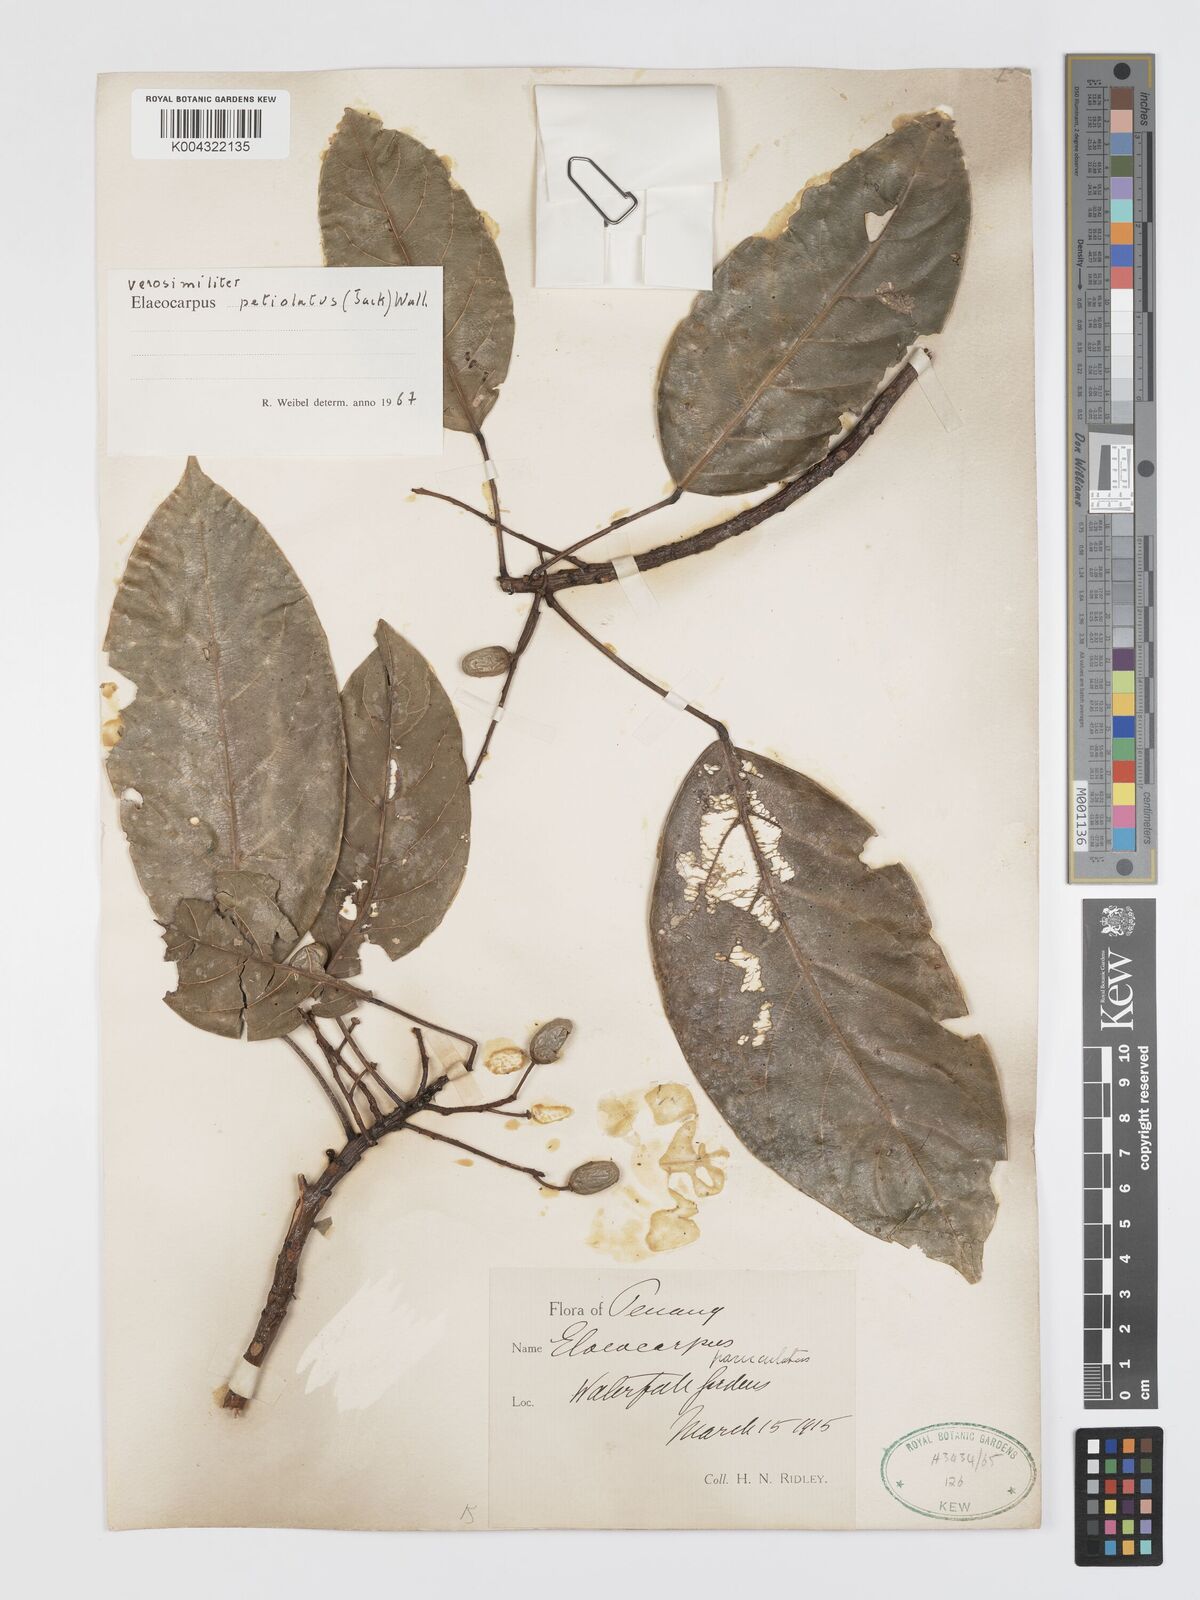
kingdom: Plantae
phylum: Tracheophyta
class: Magnoliopsida
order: Oxalidales
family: Elaeocarpaceae
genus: Elaeocarpus
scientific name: Elaeocarpus petiolatus
